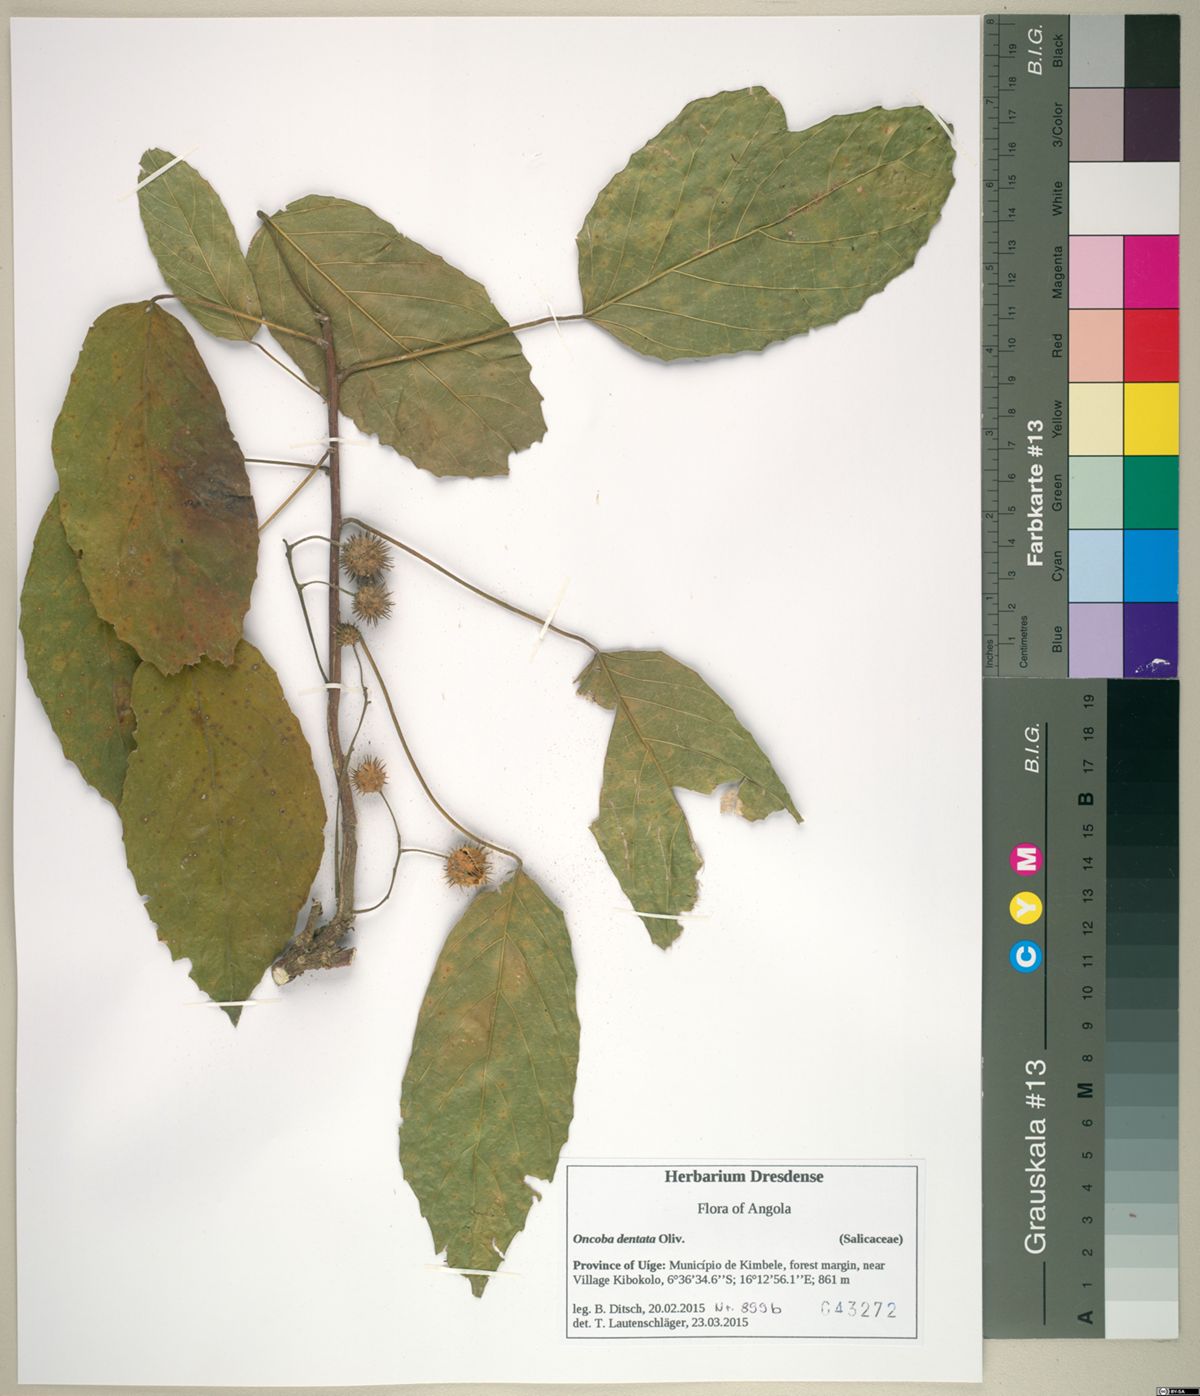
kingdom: Plantae
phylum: Tracheophyta
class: Magnoliopsida
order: Malpighiales
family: Achariaceae
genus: Lindackeria
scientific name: Lindackeria dentata
